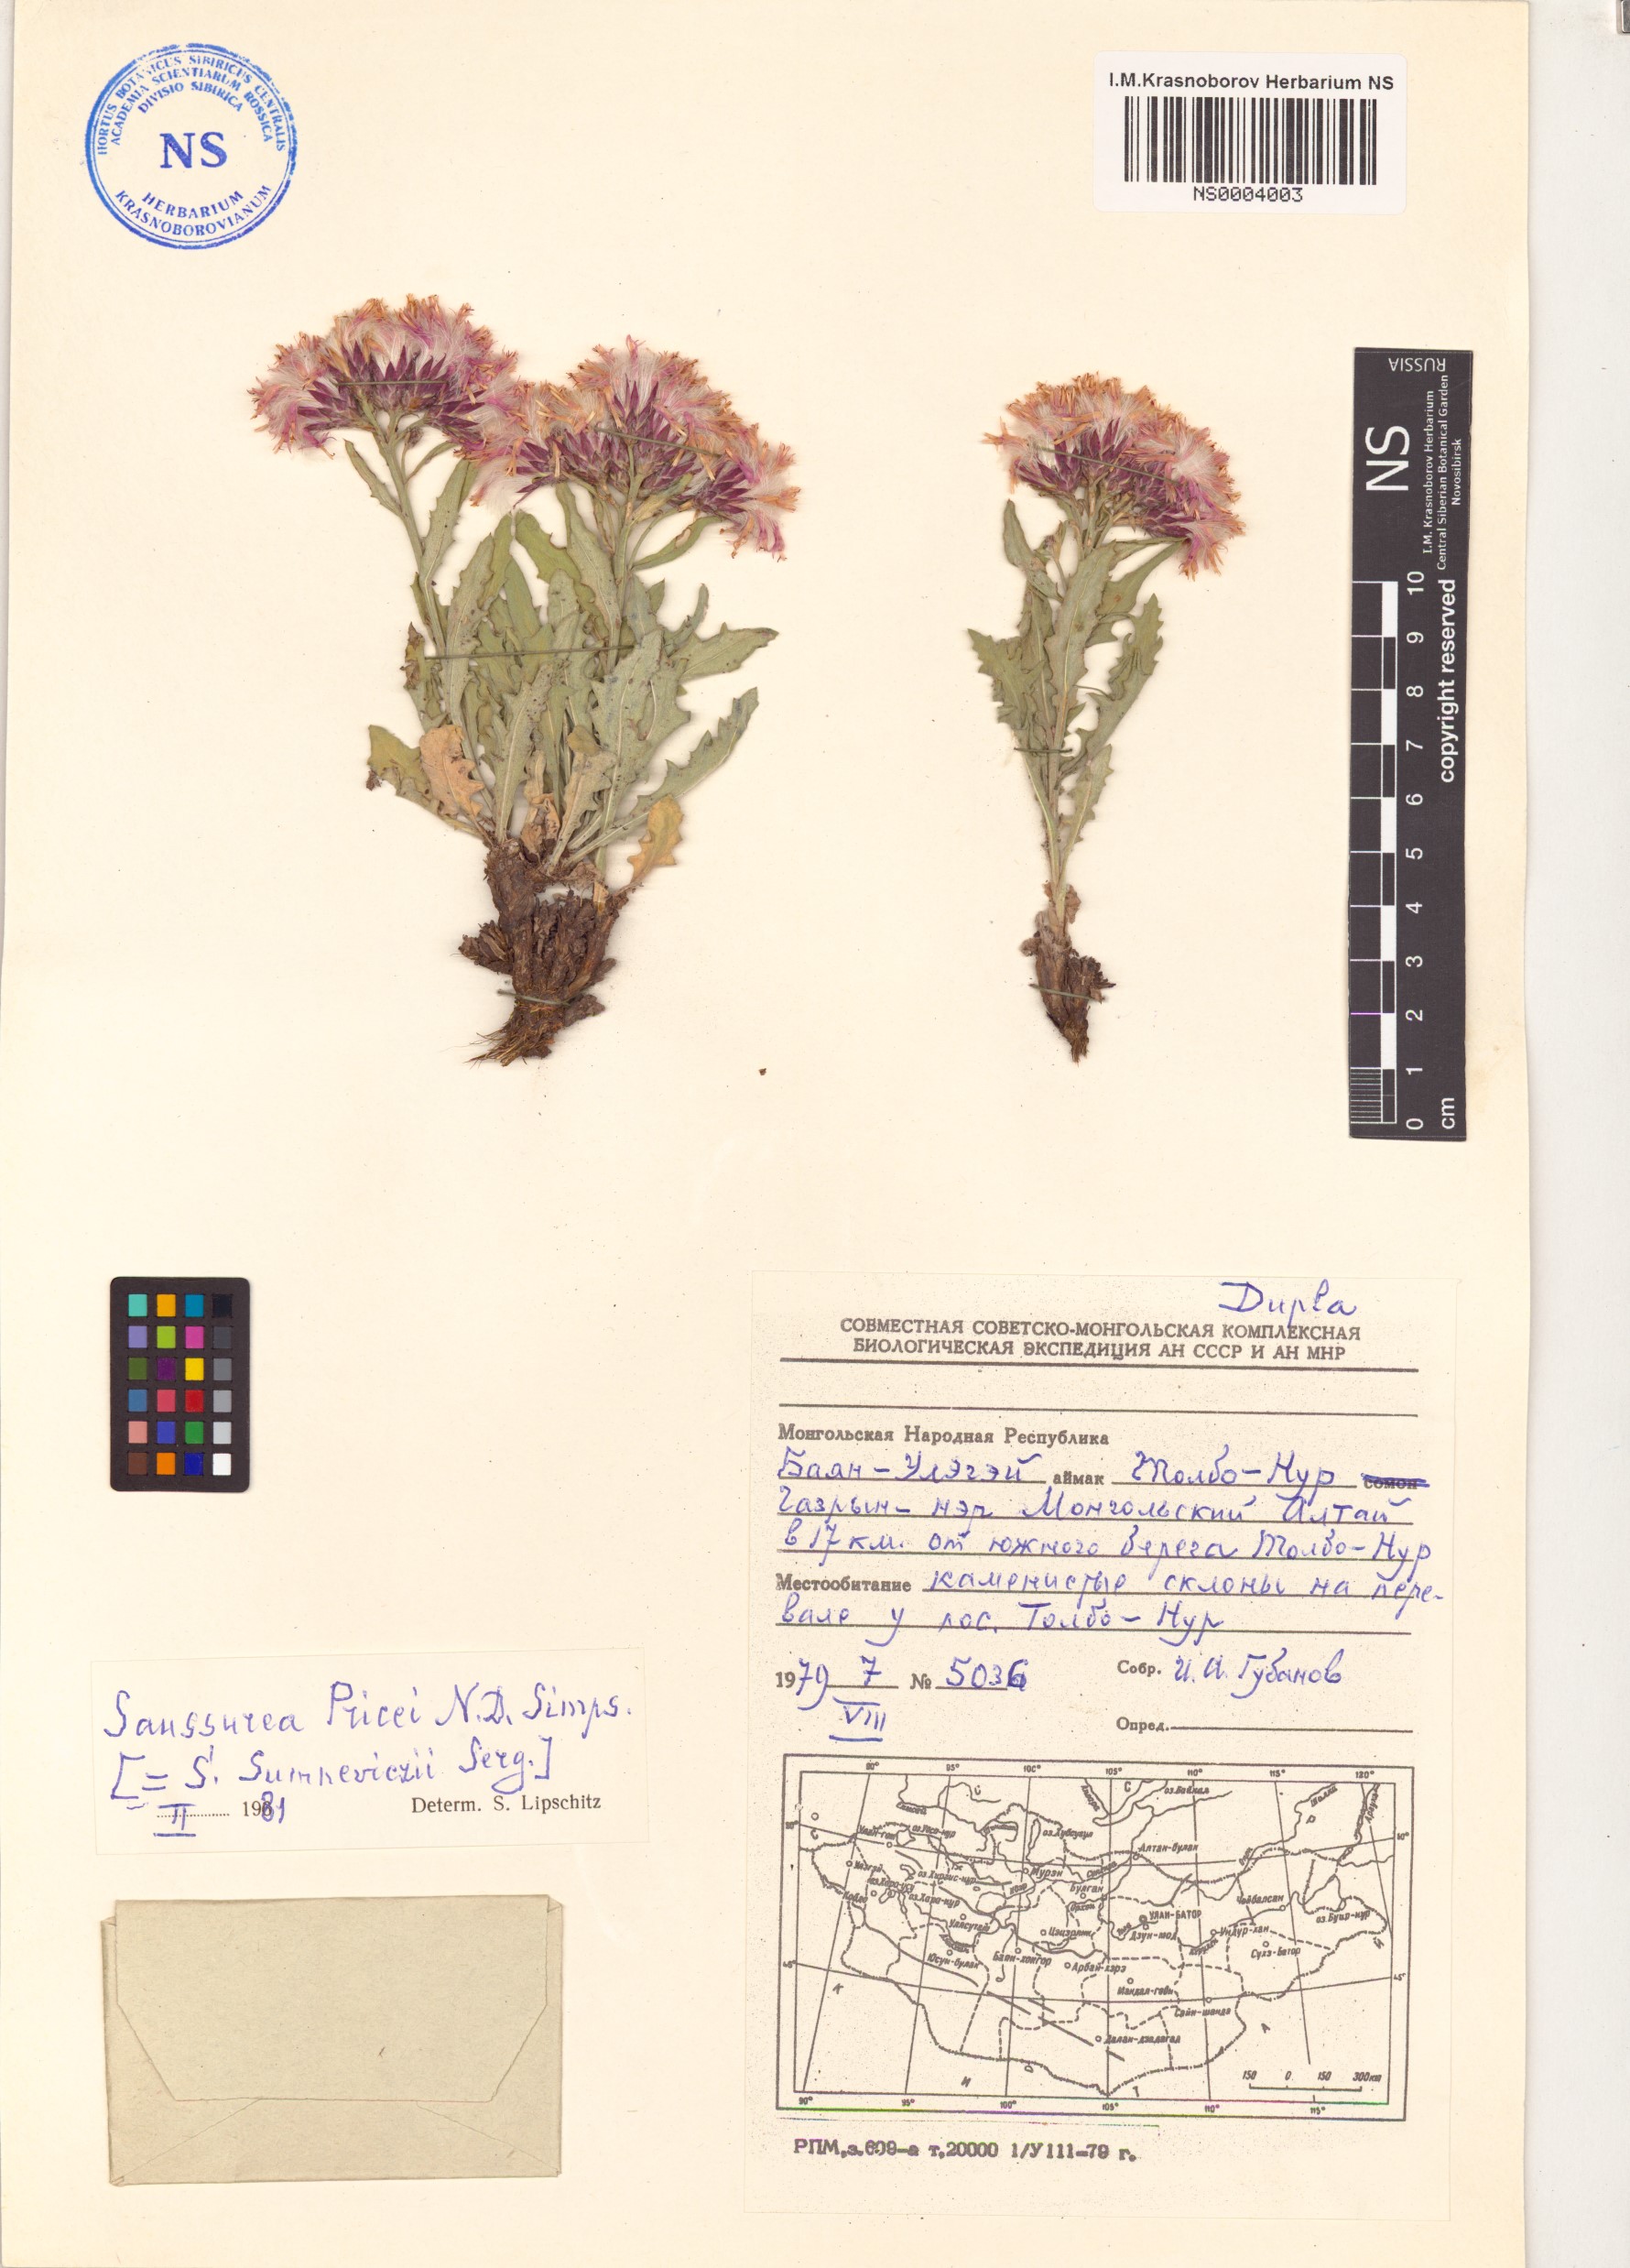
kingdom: Plantae
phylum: Tracheophyta
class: Magnoliopsida
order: Asterales
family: Asteraceae
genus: Saussurea
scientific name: Saussurea pricei
